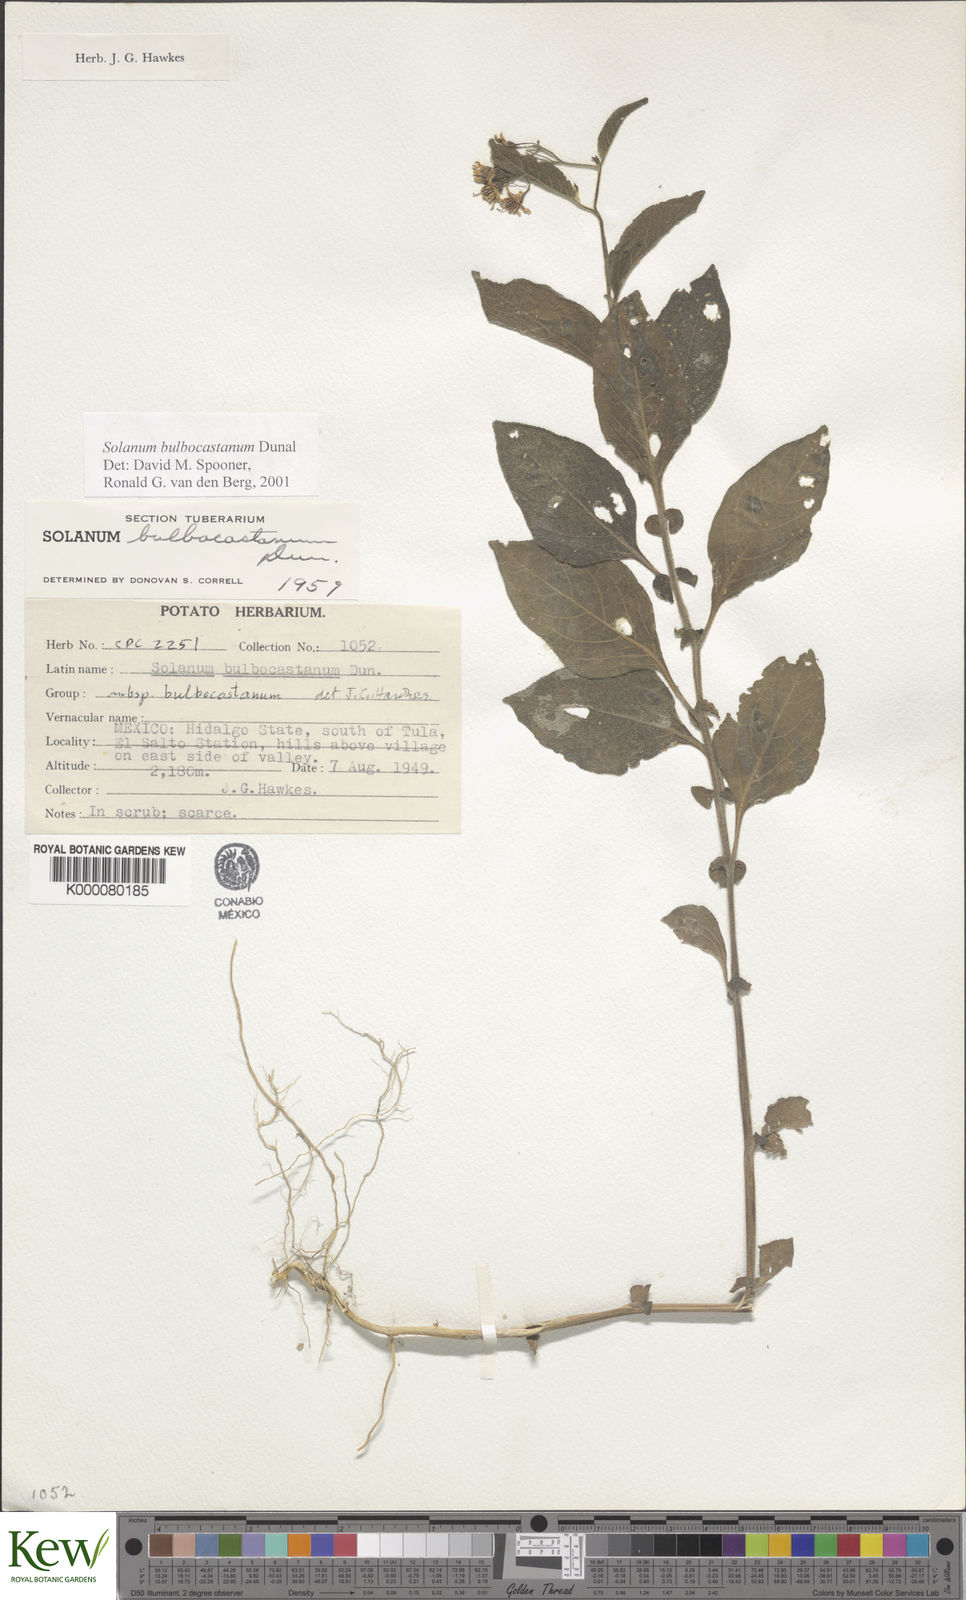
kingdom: Plantae
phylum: Tracheophyta
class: Magnoliopsida
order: Solanales
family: Solanaceae
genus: Solanum
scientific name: Solanum bulbocastanum
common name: Ornamental nightshade
